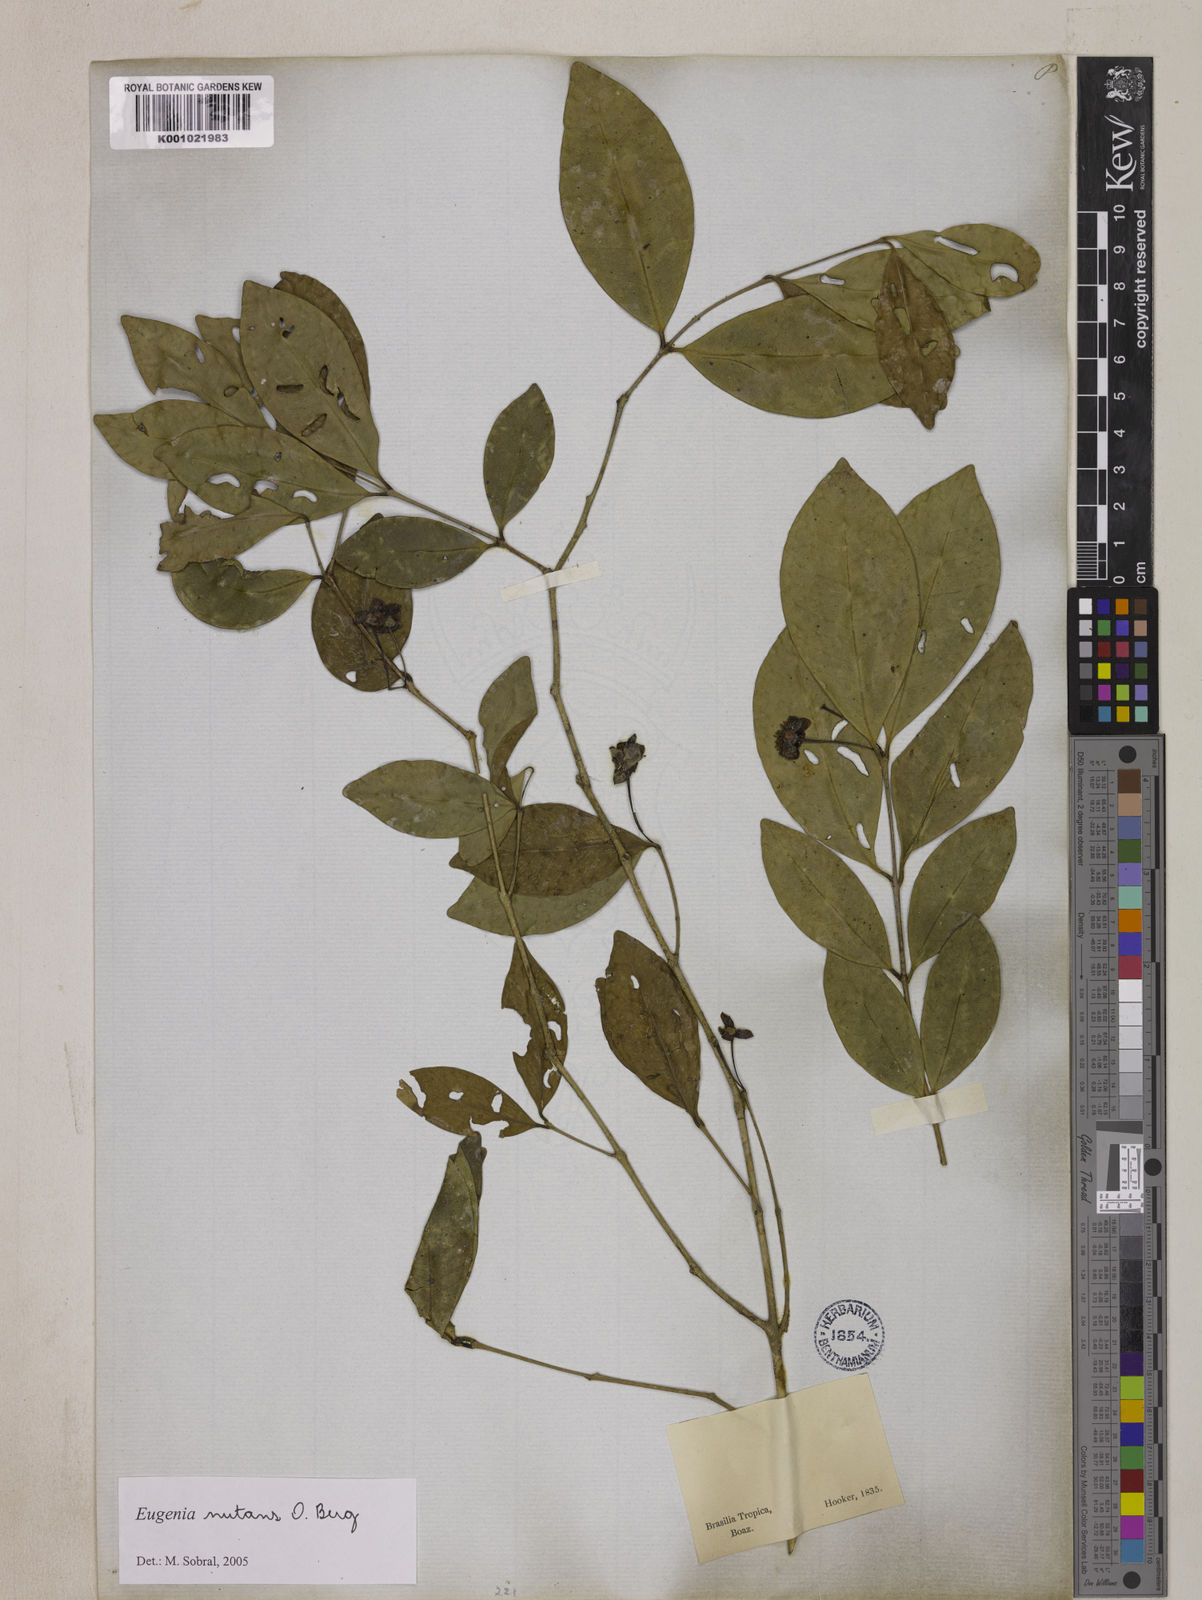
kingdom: Plantae
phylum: Tracheophyta
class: Magnoliopsida
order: Myrtales
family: Myrtaceae
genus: Eugenia
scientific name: Eugenia nutans
